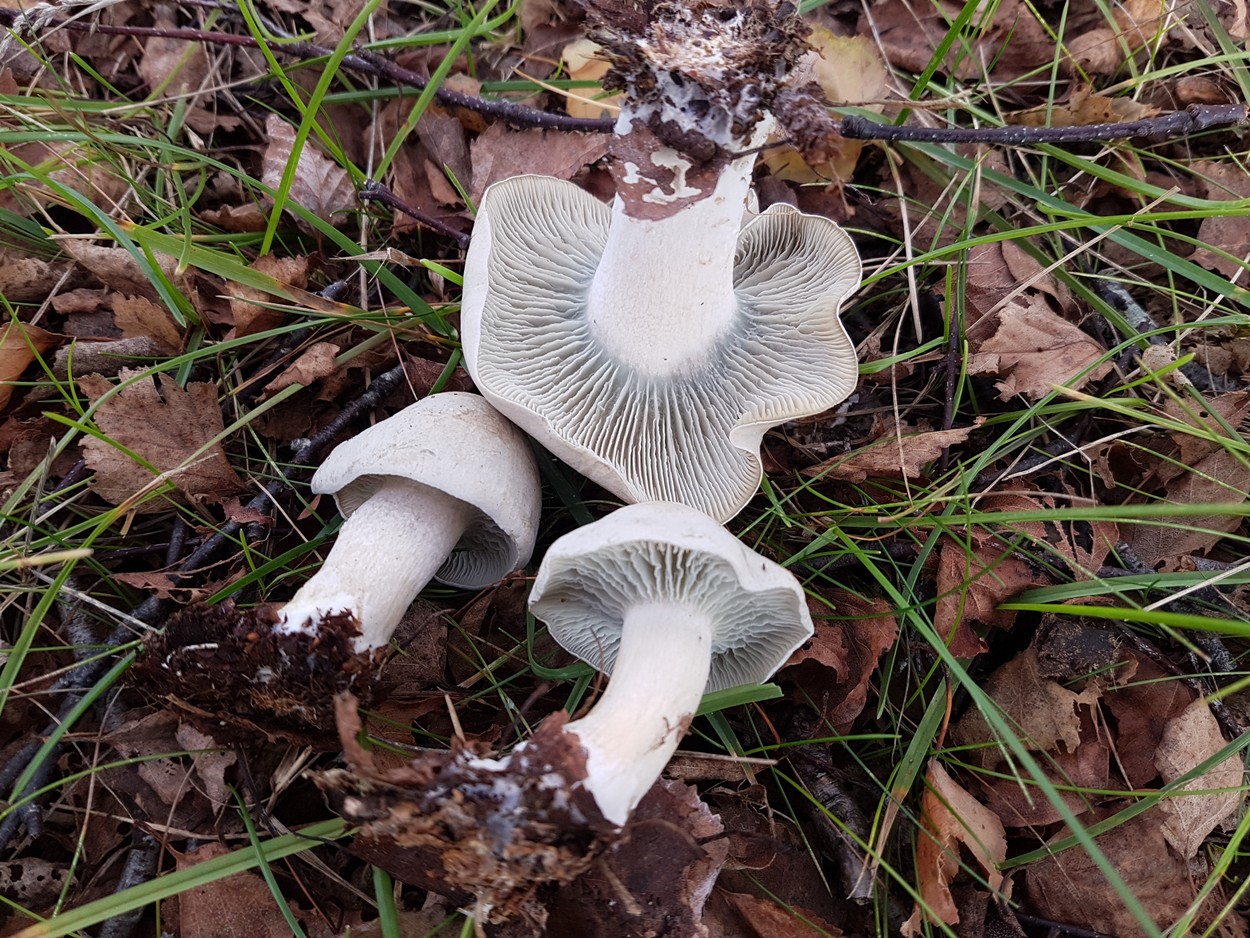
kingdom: Fungi
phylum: Basidiomycota
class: Agaricomycetes
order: Agaricales
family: Tricholomataceae
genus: Clitocybe
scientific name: Clitocybe odora
